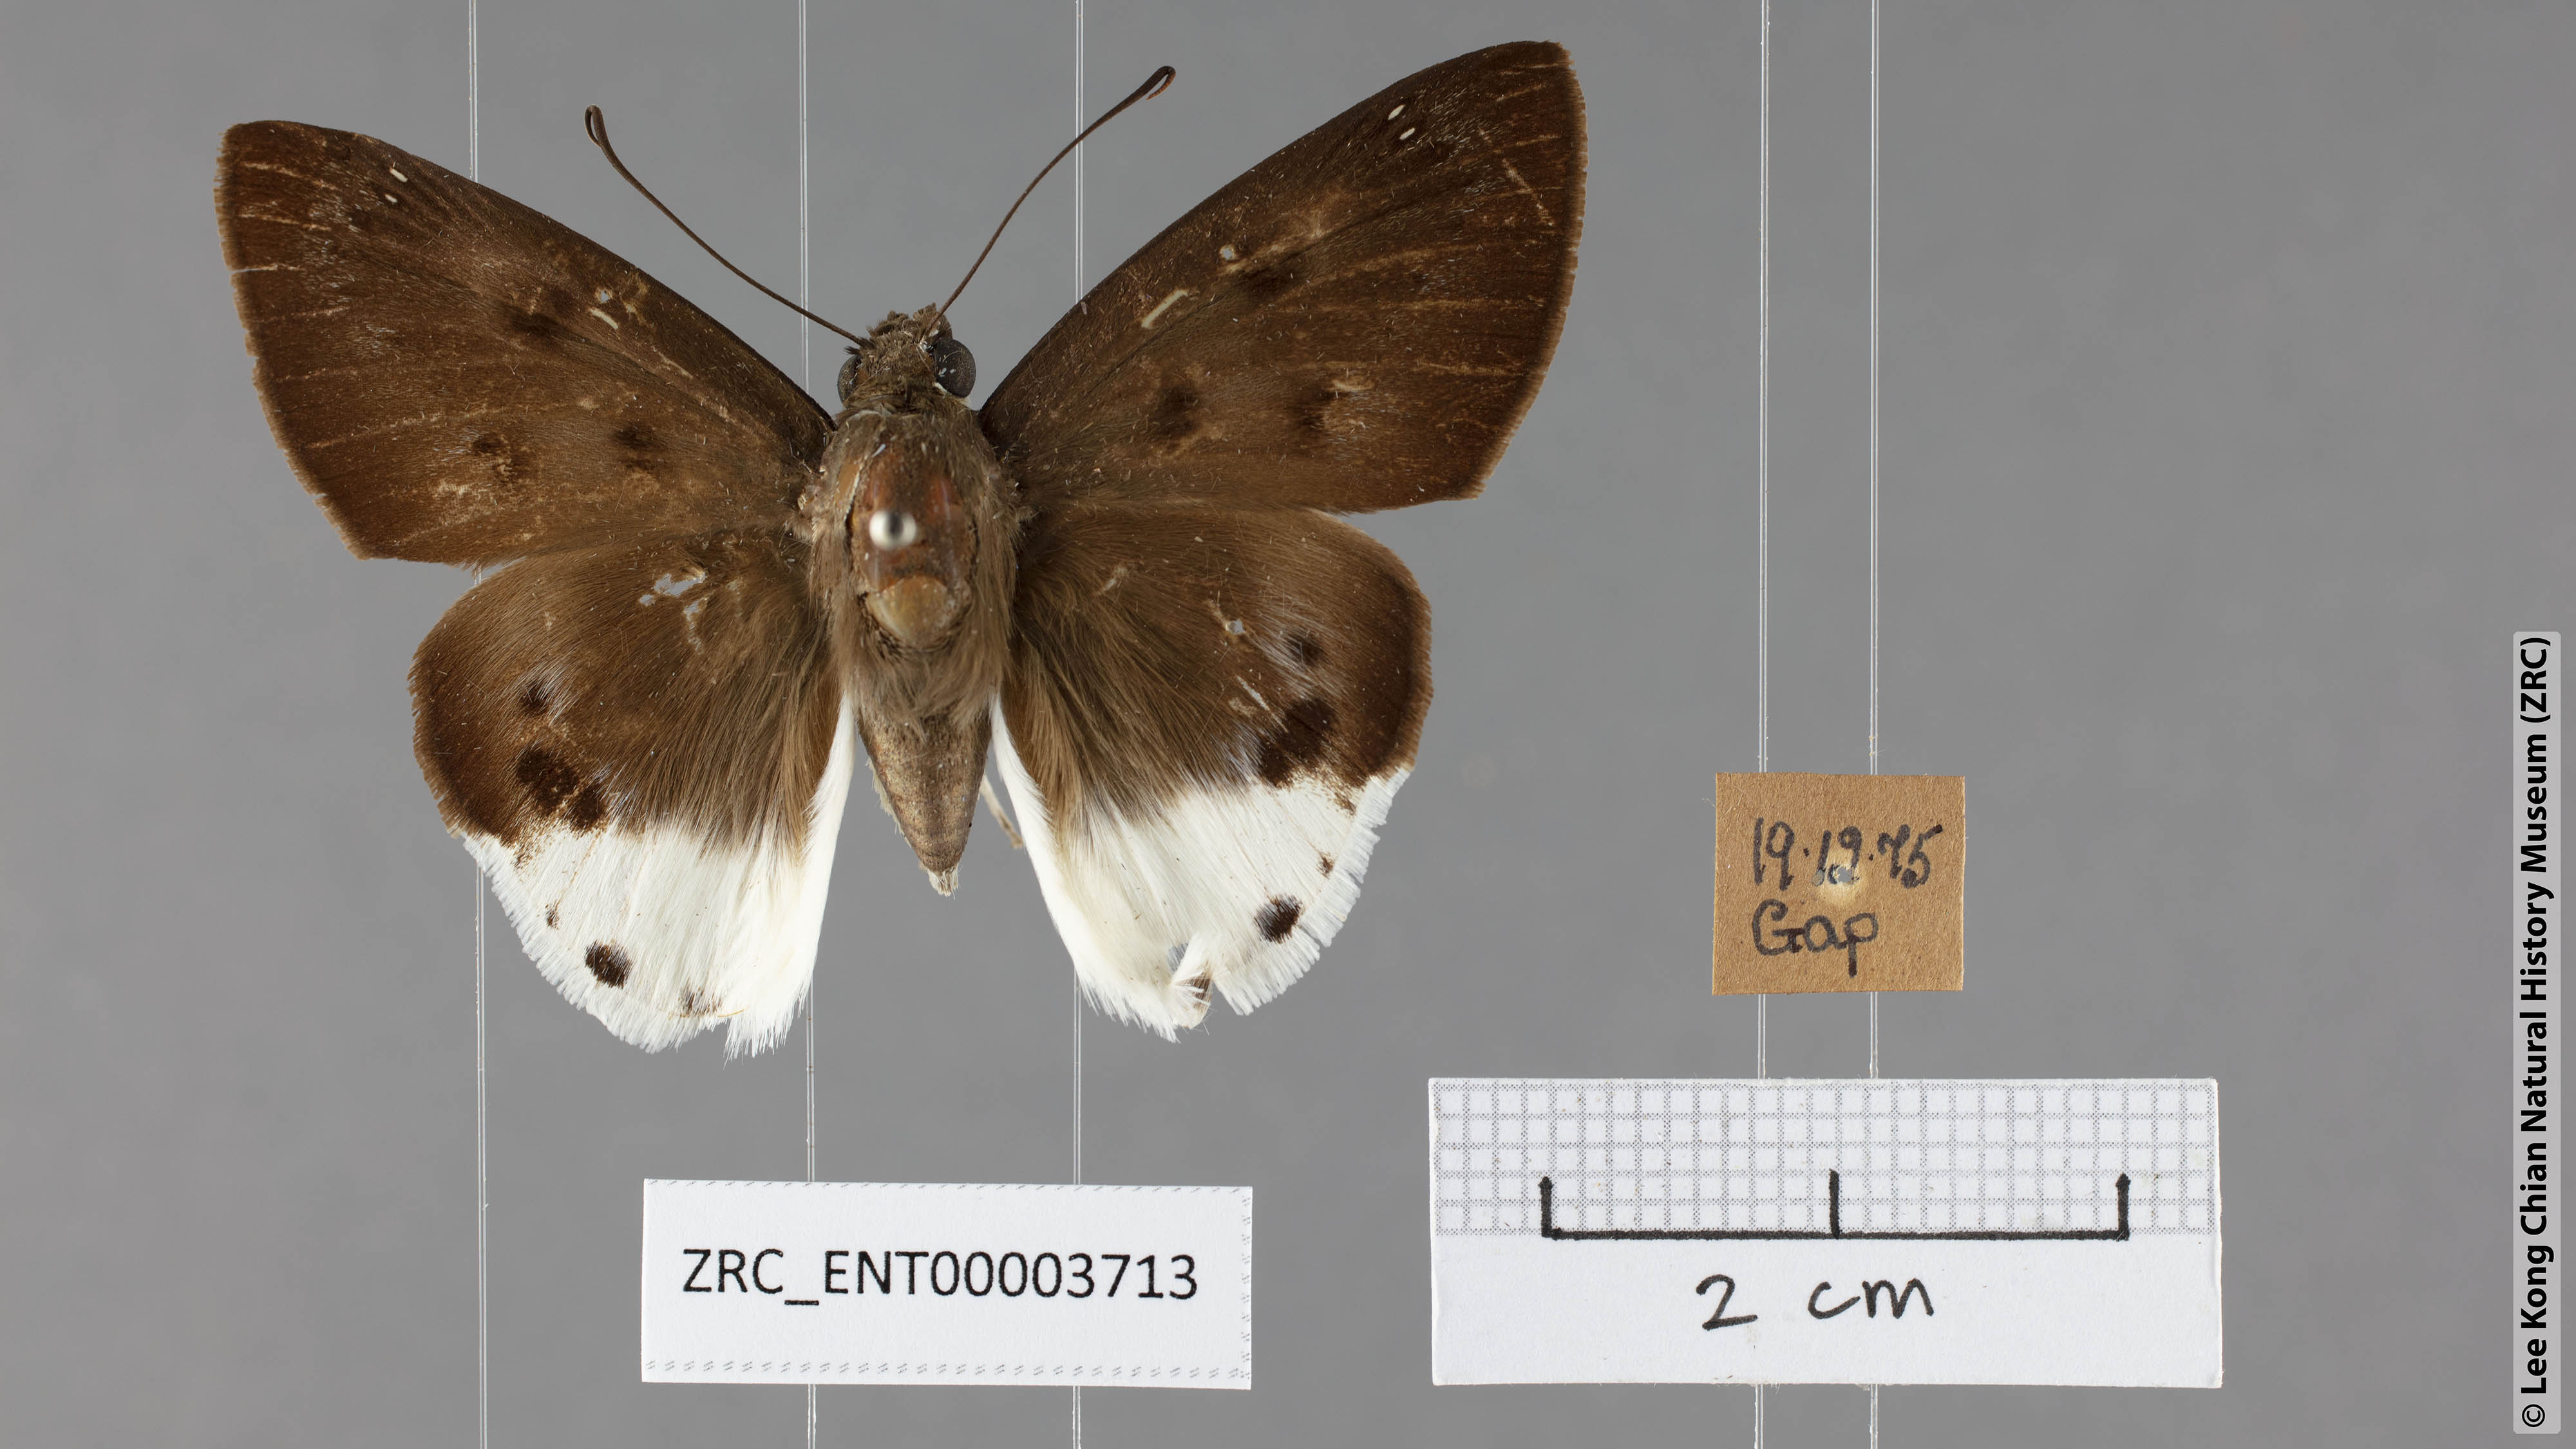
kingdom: Animalia
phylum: Arthropoda
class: Insecta
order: Lepidoptera
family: Hesperiidae
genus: Tagiades
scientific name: Tagiades parra
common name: Straight snow flat
